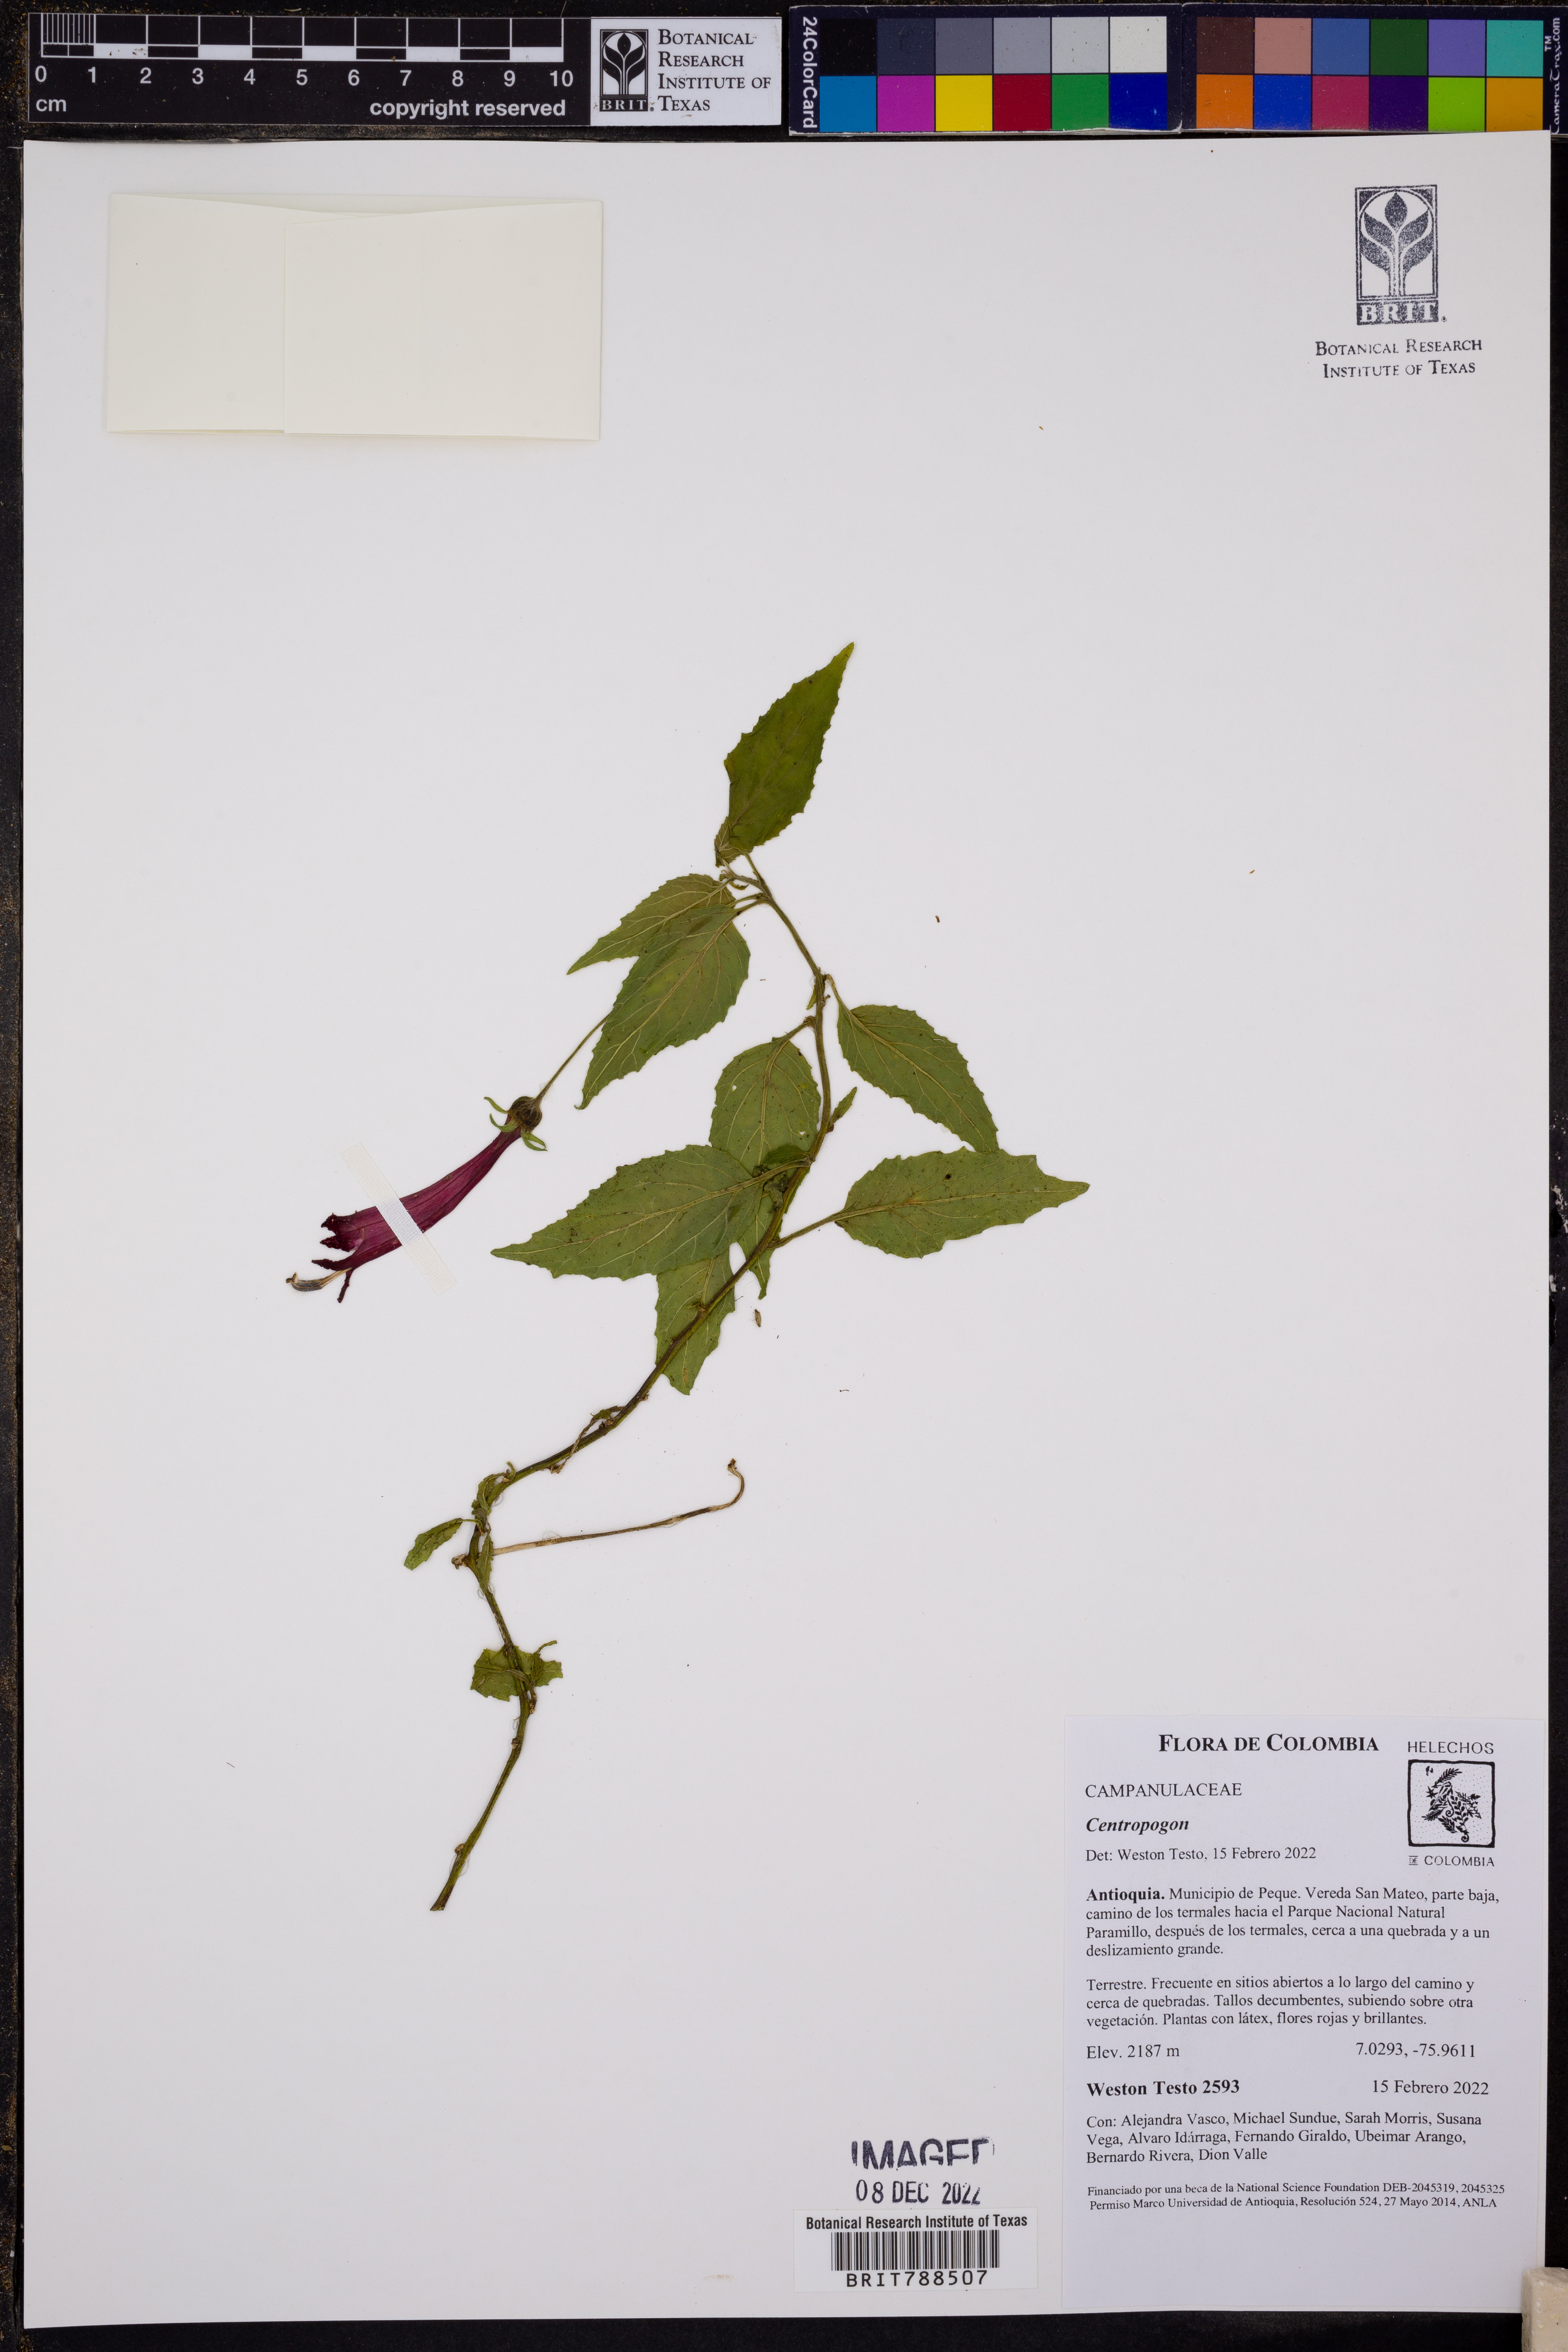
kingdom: Plantae
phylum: Tracheophyta
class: Magnoliopsida
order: Asterales
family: Campanulaceae
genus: Centropogon
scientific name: Centropogon
